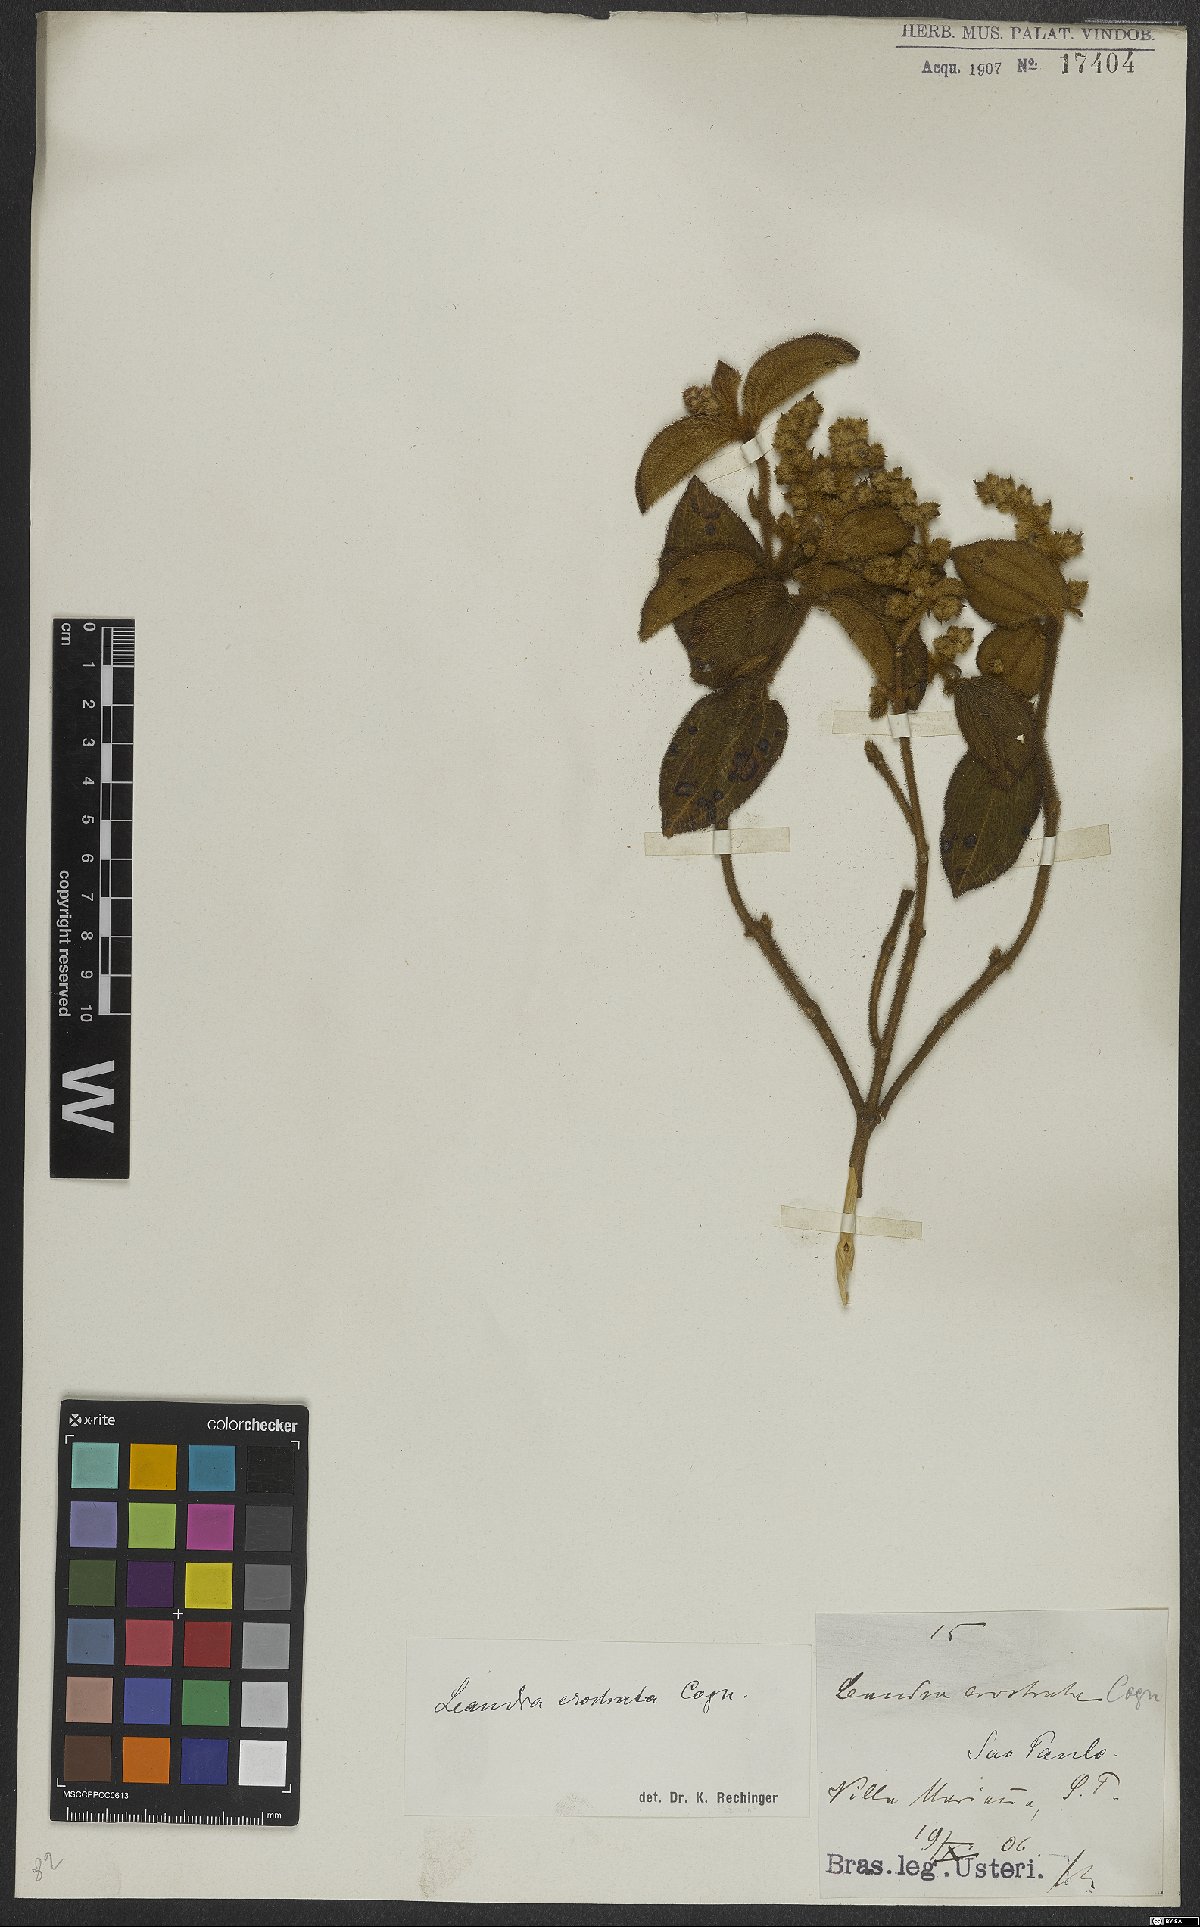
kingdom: Plantae
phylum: Tracheophyta
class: Magnoliopsida
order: Myrtales
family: Melastomataceae
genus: Miconia
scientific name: Miconia erostrata
